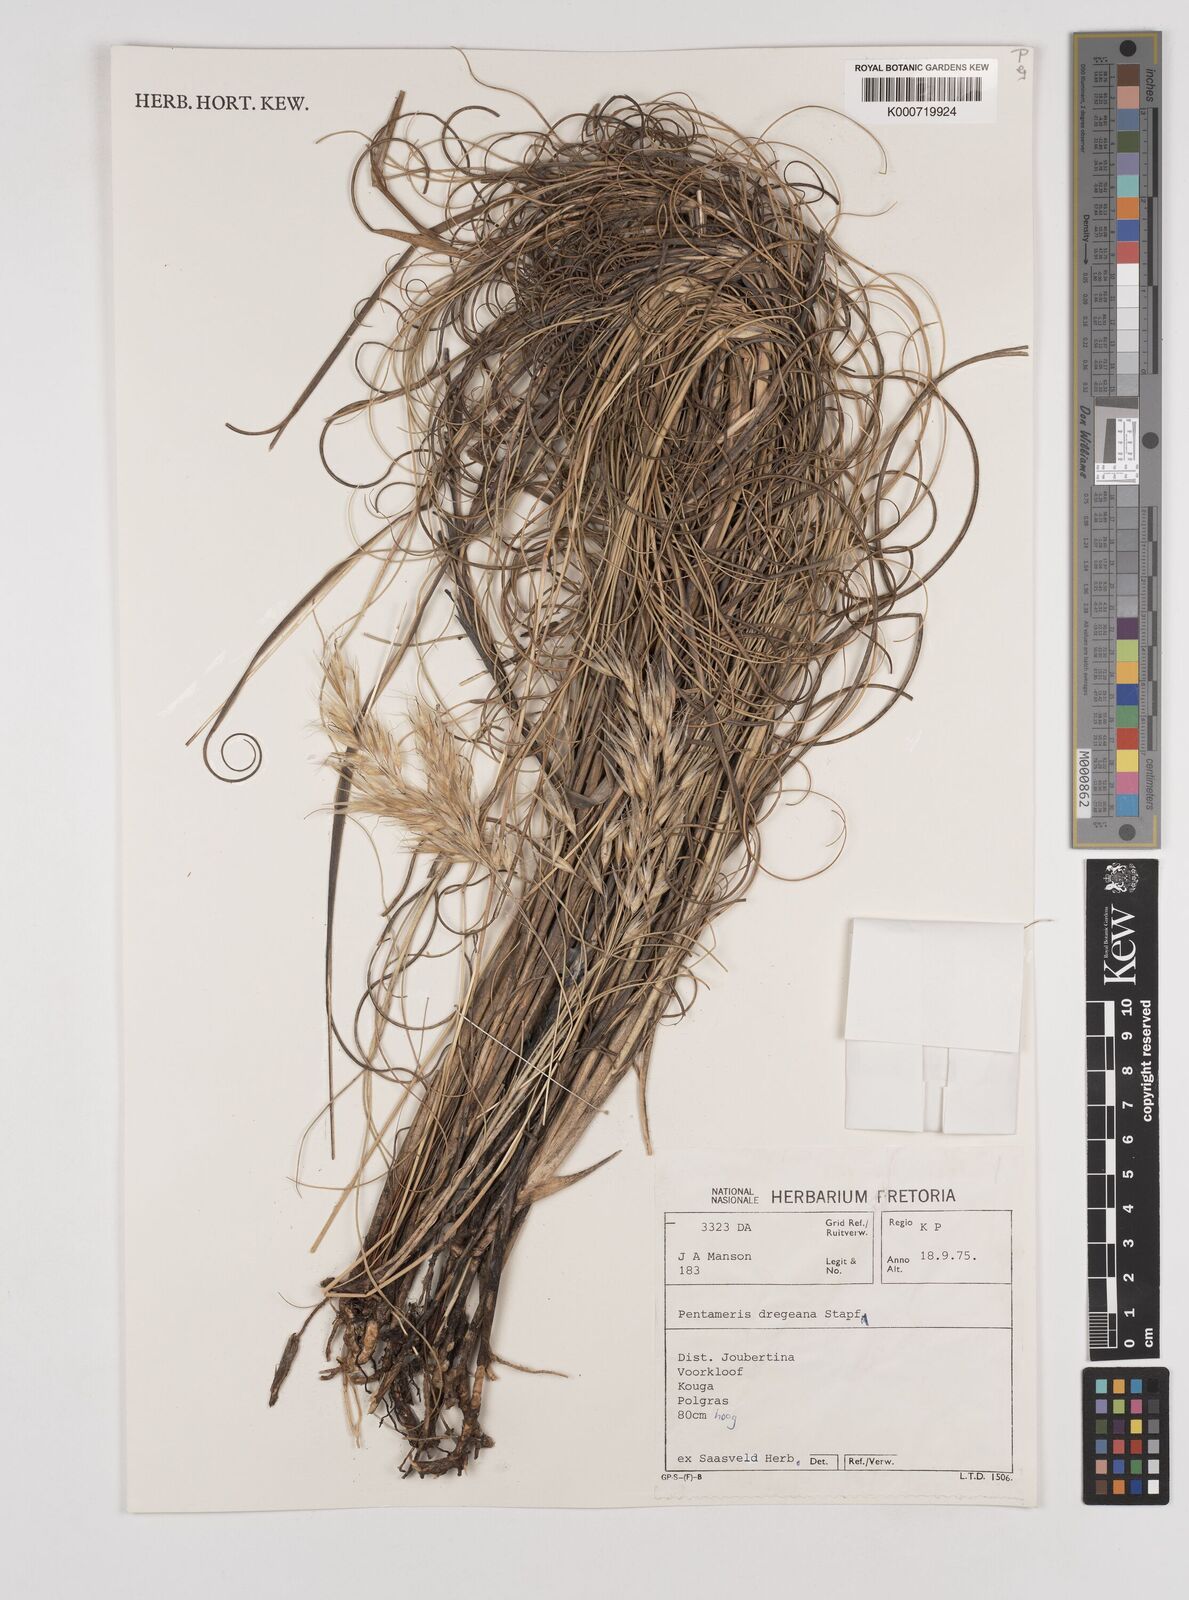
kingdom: Plantae
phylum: Tracheophyta
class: Liliopsida
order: Poales
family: Poaceae
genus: Pentameris
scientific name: Pentameris dregeana
